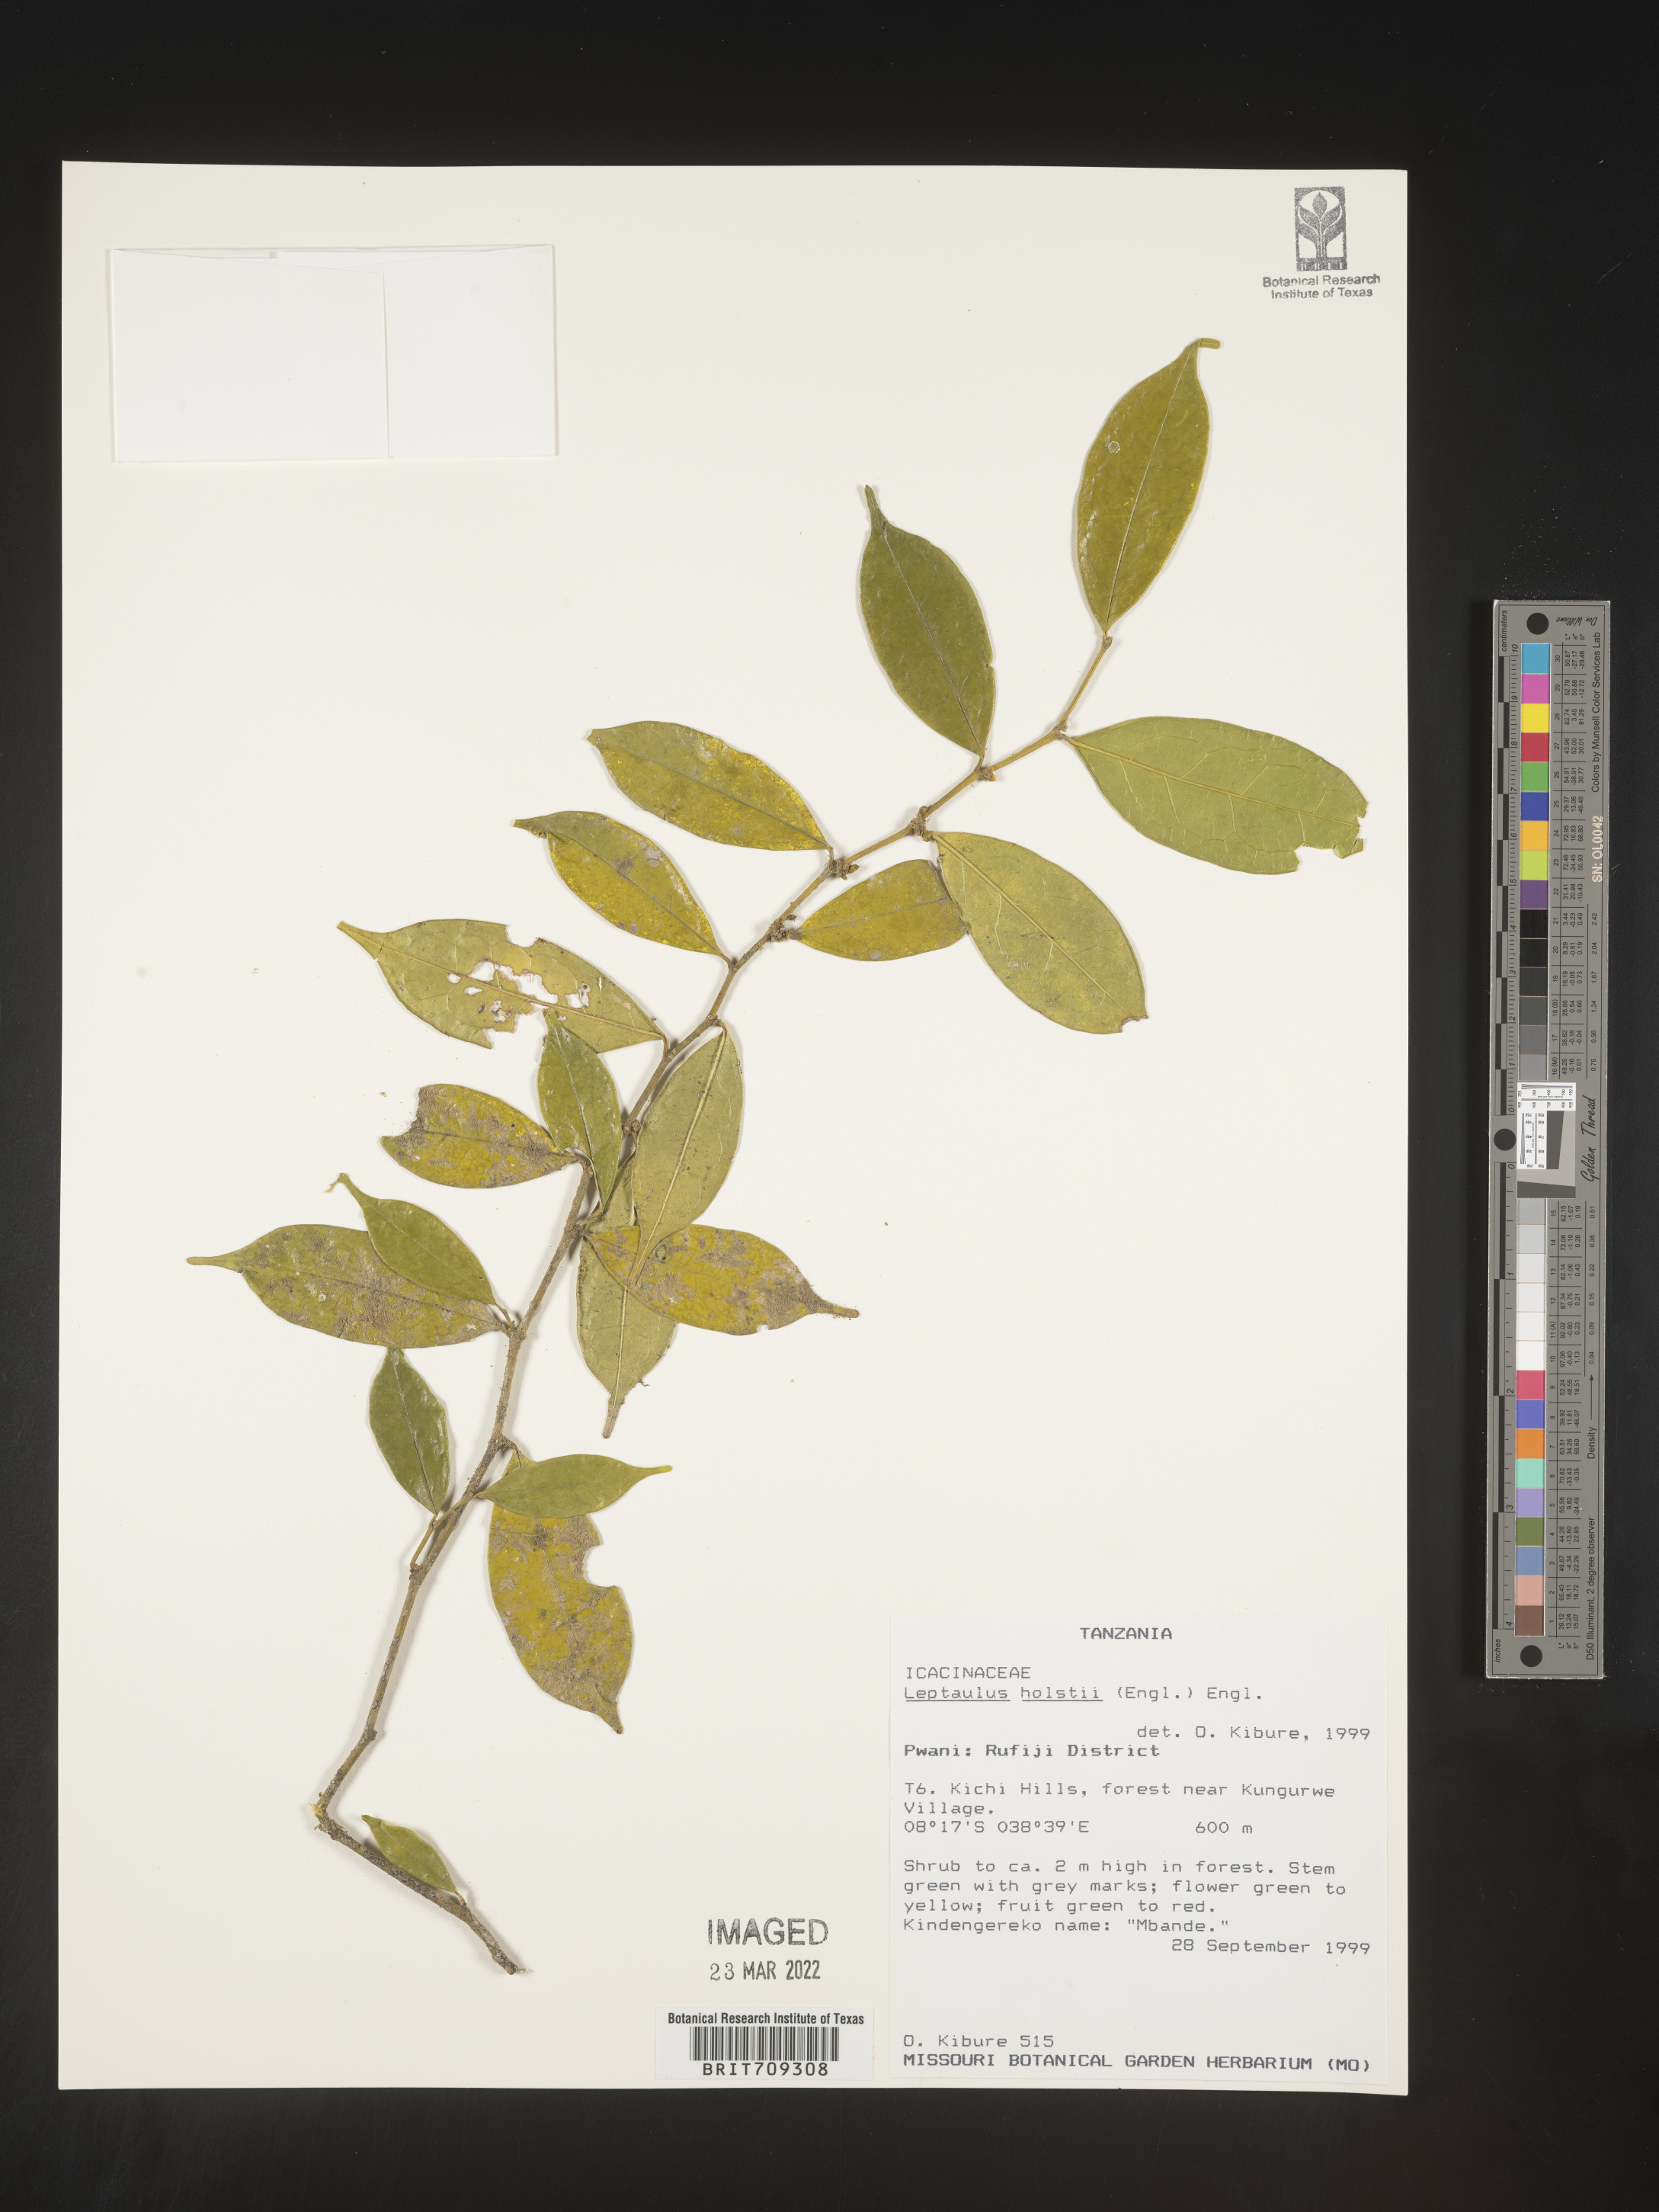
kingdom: Plantae
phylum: Tracheophyta
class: Magnoliopsida
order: Cardiopteridales
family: Cardiopteridaceae
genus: Leptaulus
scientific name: Leptaulus
